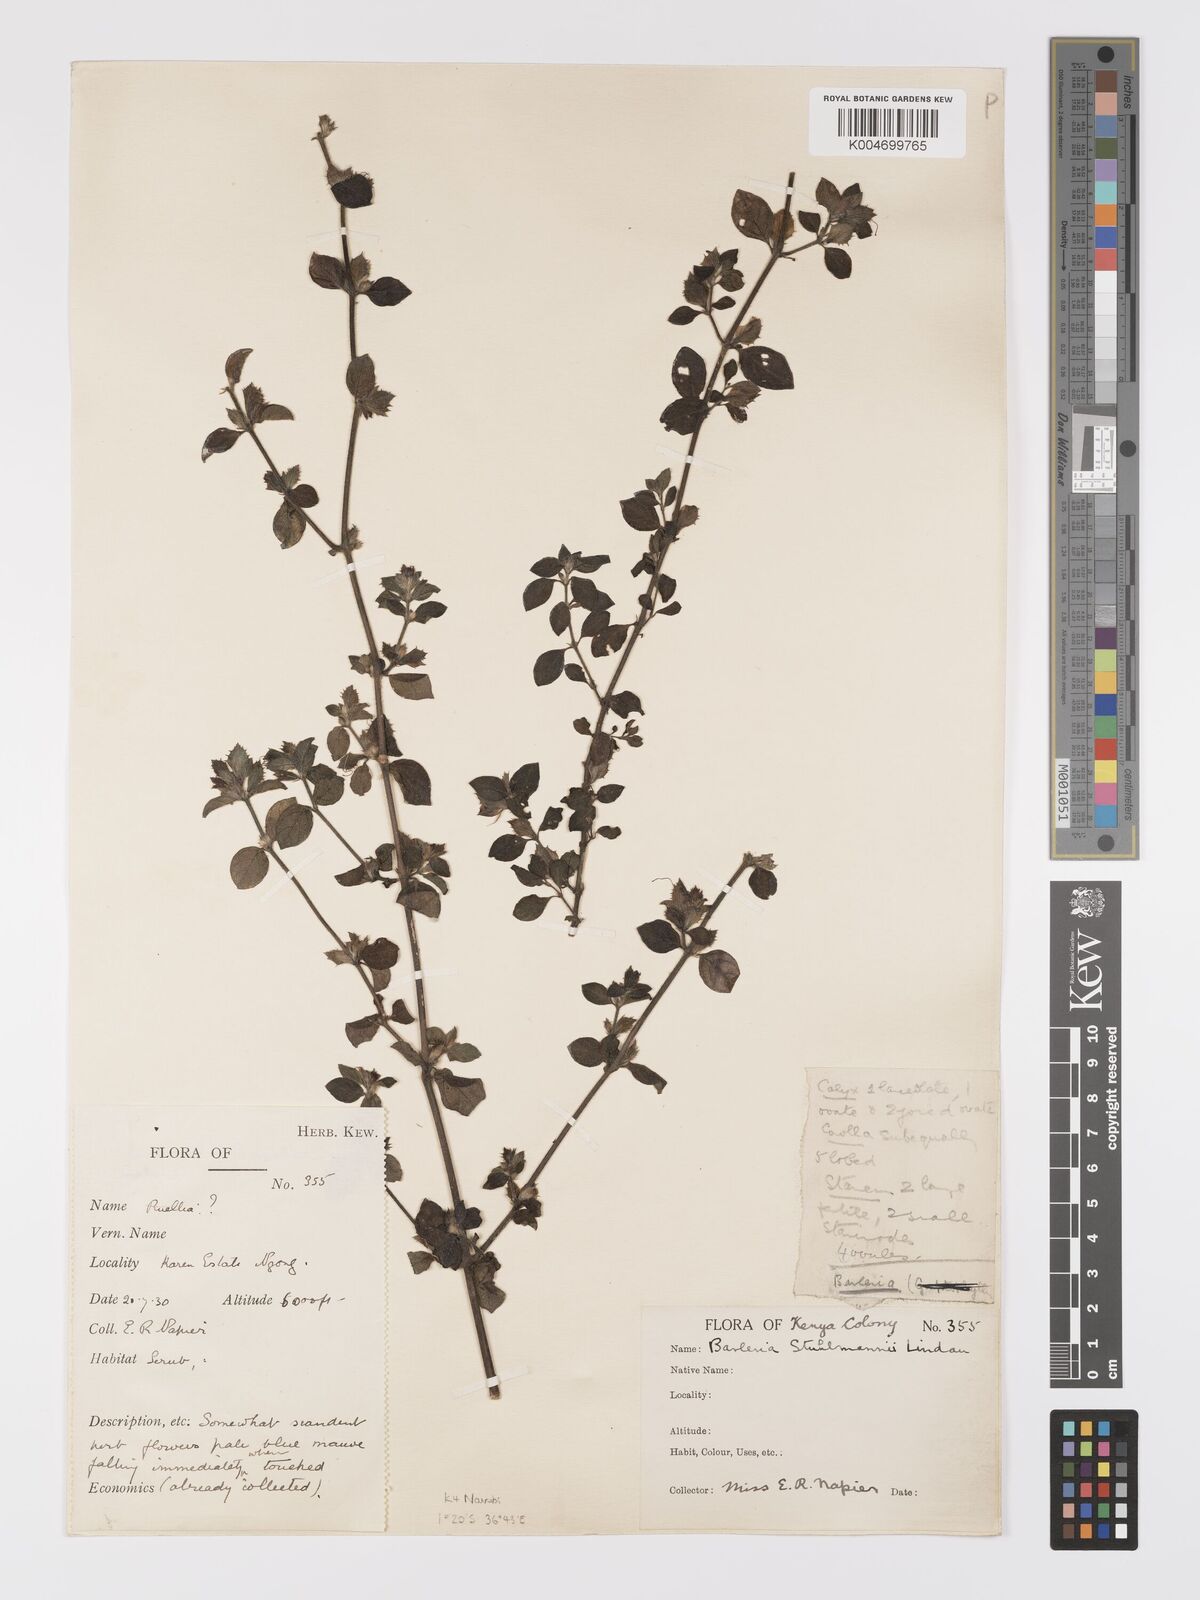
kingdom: Plantae
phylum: Tracheophyta
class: Magnoliopsida
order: Lamiales
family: Acanthaceae
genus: Barleria
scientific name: Barleria ventricosa
